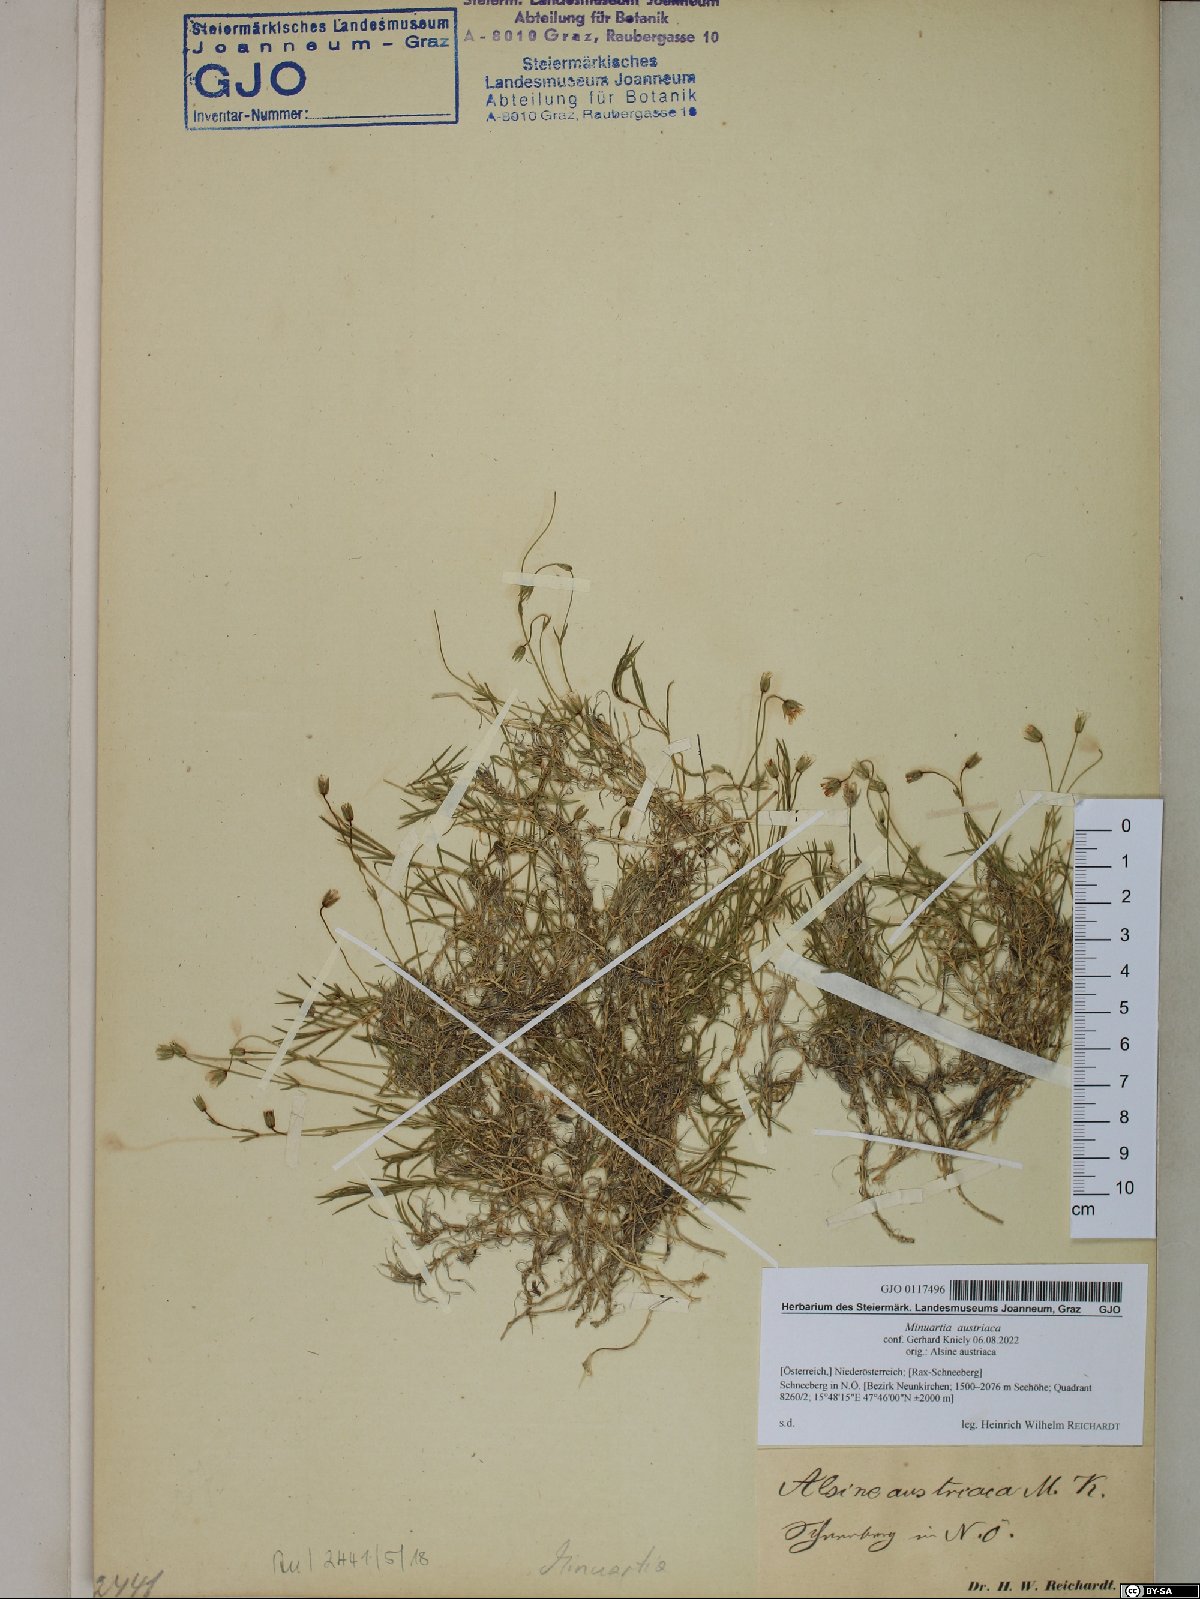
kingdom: Plantae
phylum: Tracheophyta
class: Magnoliopsida
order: Caryophyllales
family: Caryophyllaceae
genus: Sabulina
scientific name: Sabulina austriaca
